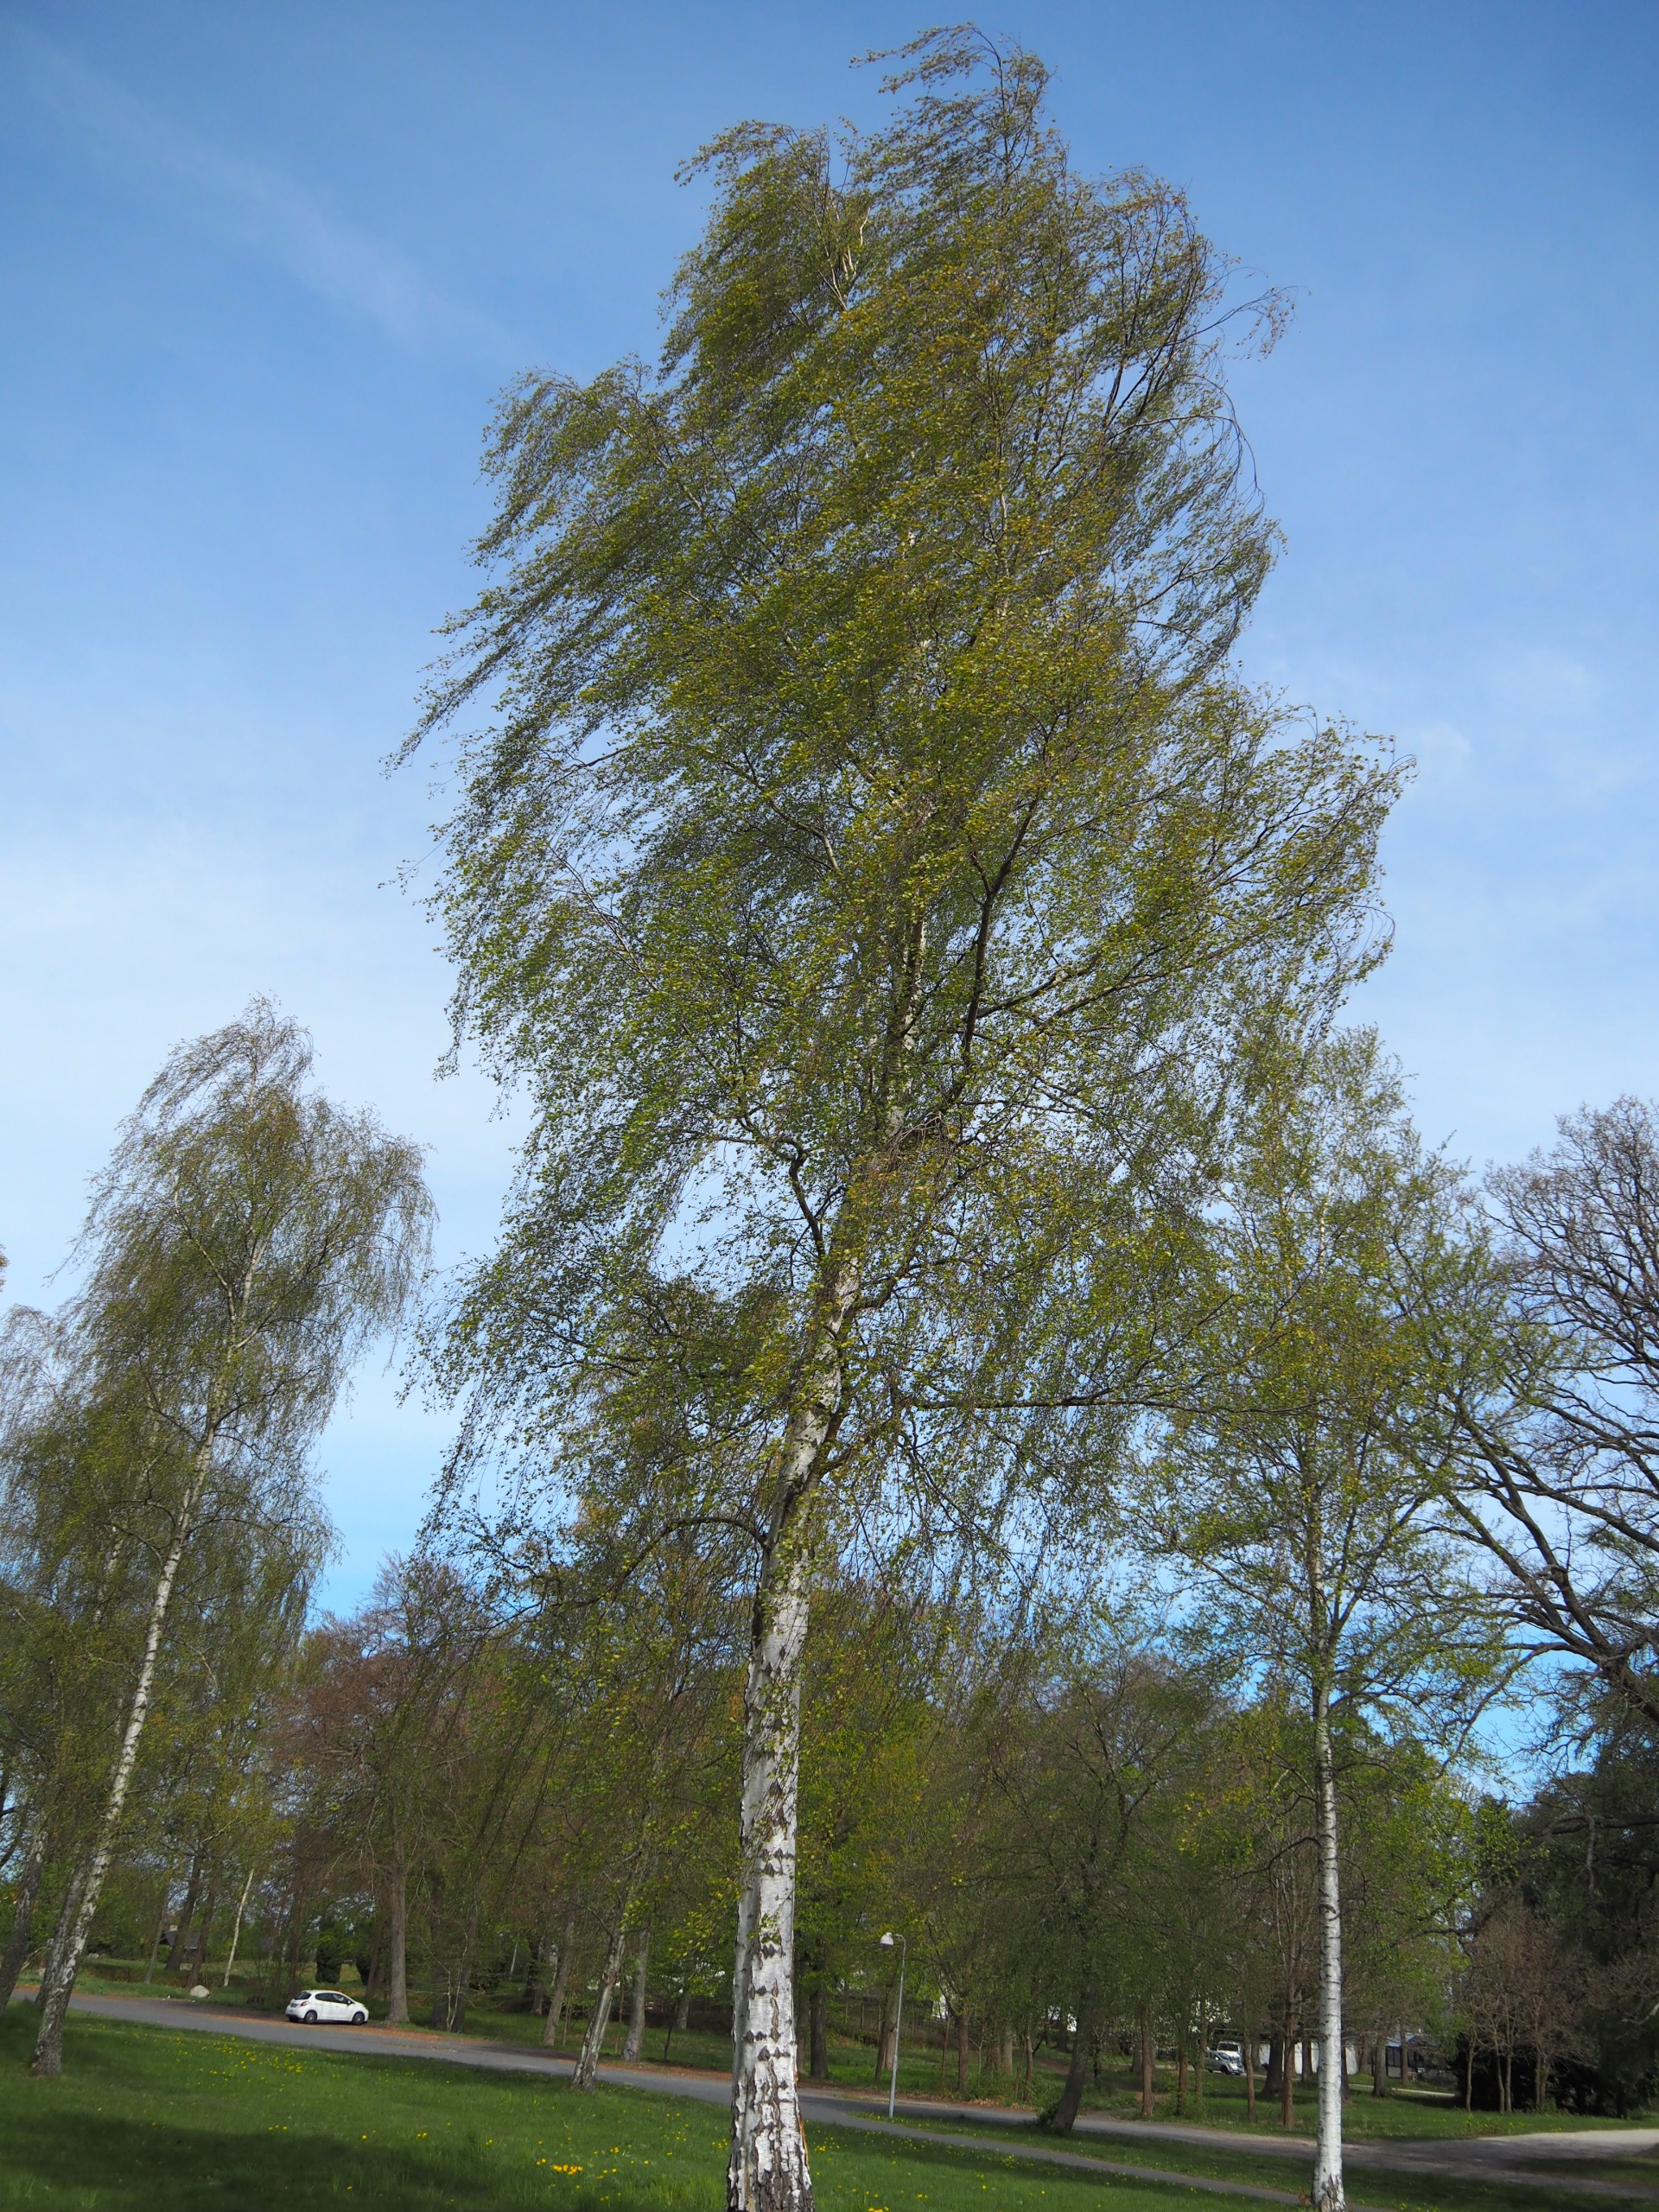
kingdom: Plantae
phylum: Tracheophyta
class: Magnoliopsida
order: Fagales
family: Betulaceae
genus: Betula
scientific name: Betula pendula
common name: Vorte-birk
